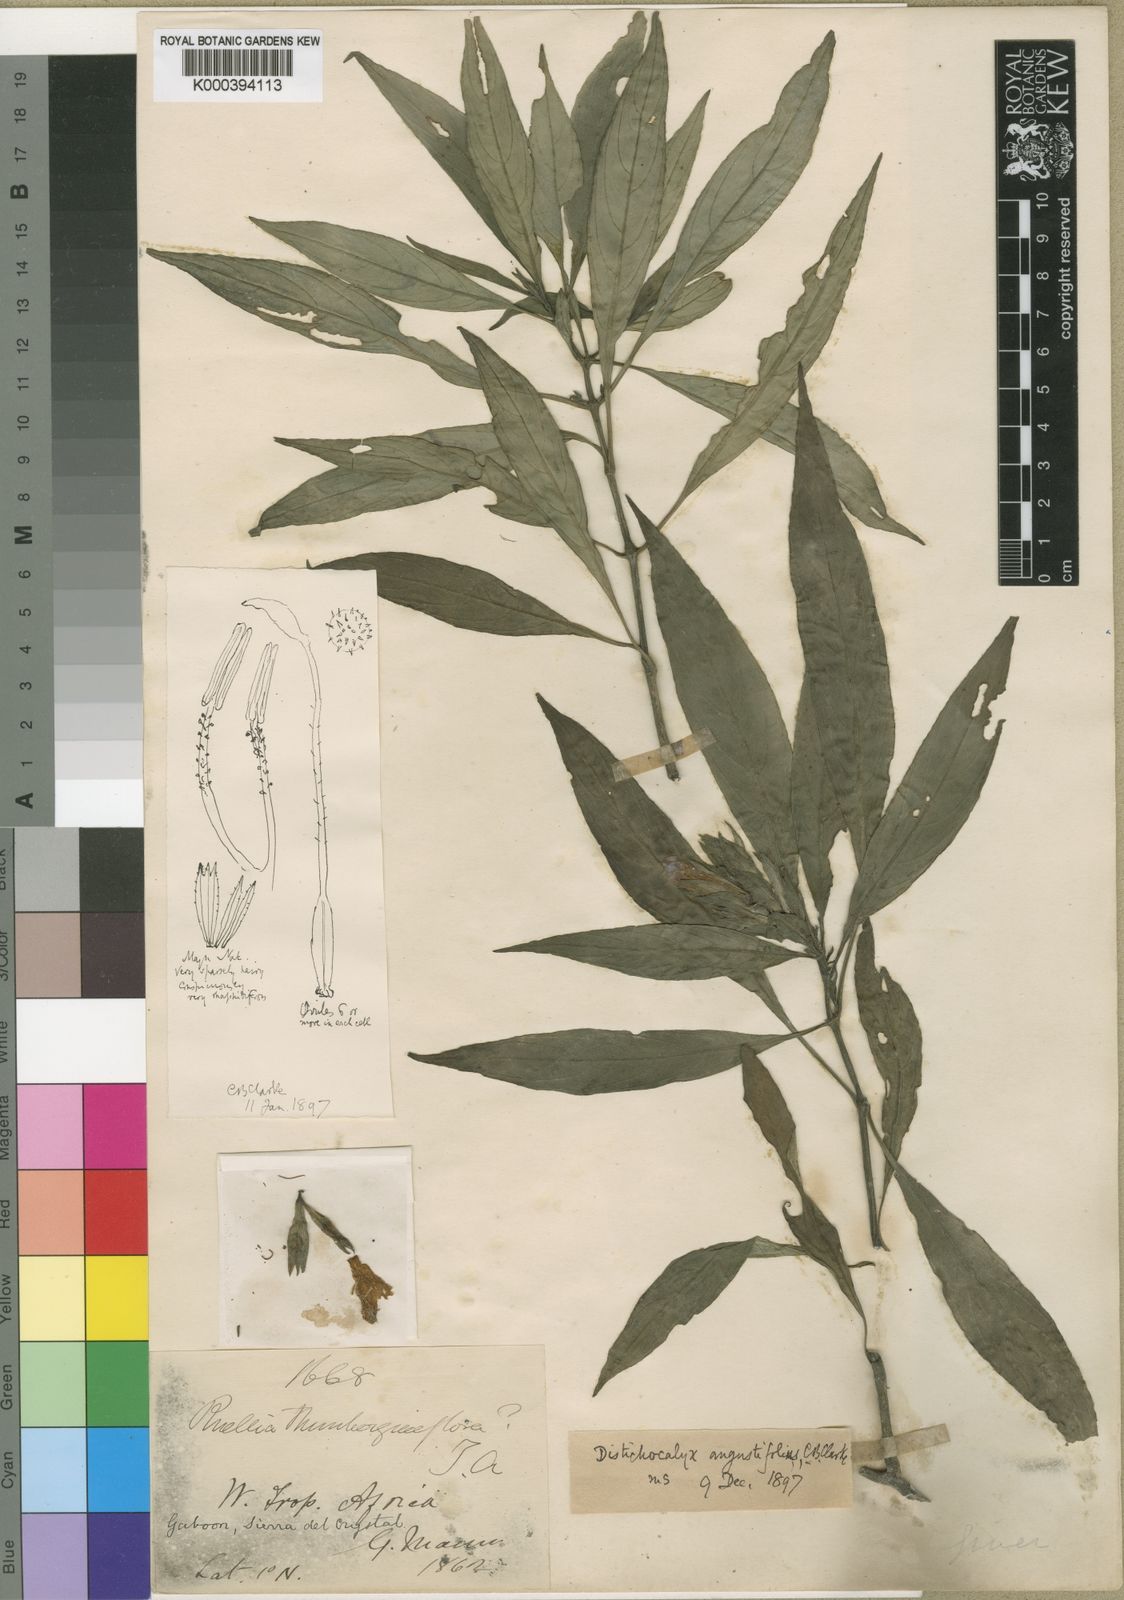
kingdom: Plantae
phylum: Tracheophyta
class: Magnoliopsida
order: Lamiales
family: Acanthaceae
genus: Dischistocalyx
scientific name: Dischistocalyx hirsutus
